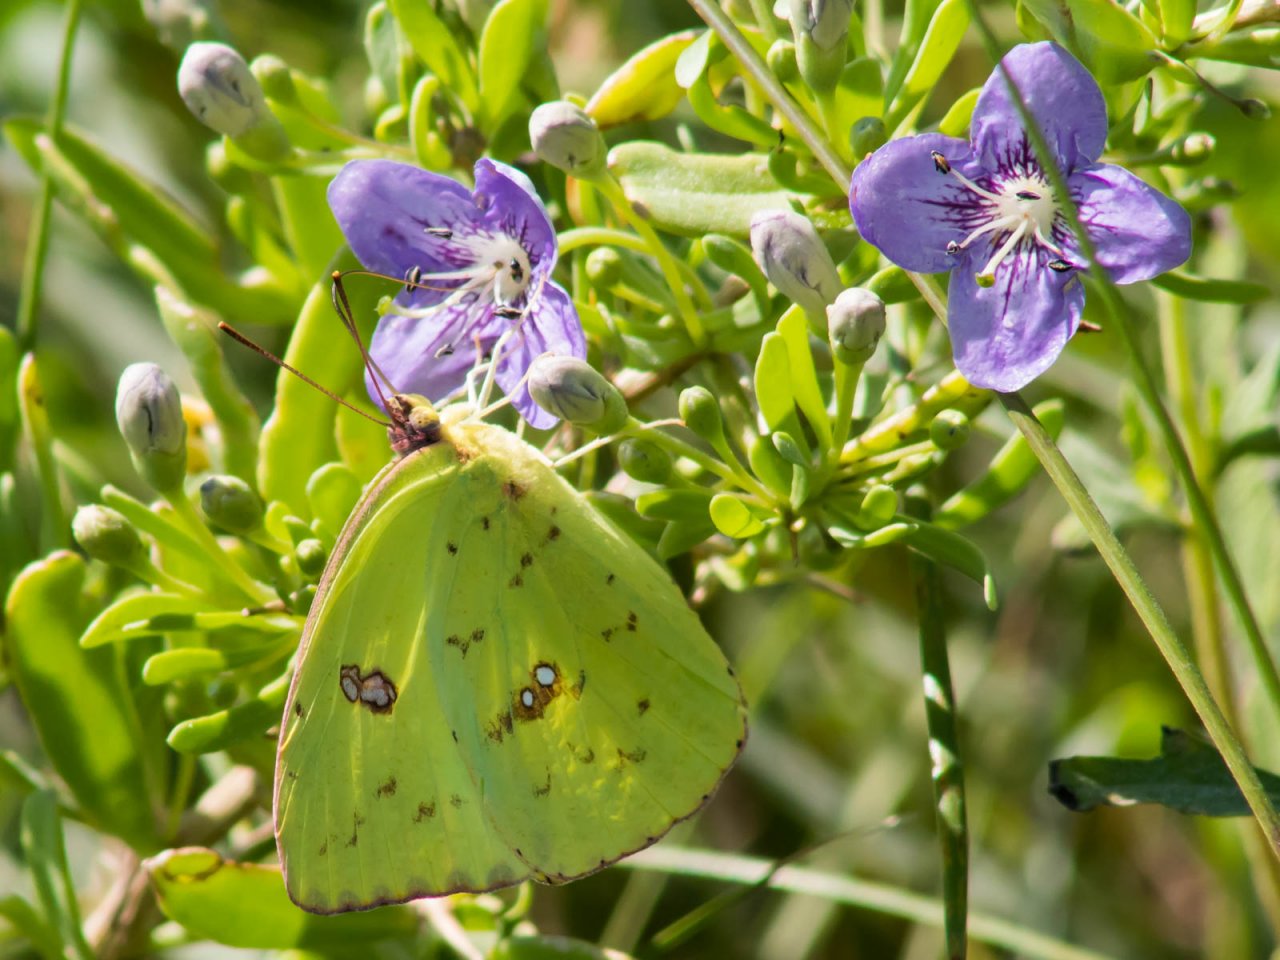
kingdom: Animalia
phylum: Arthropoda
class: Insecta
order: Lepidoptera
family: Pieridae
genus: Phoebis
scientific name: Phoebis sennae
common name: Cloudless Sulphur
